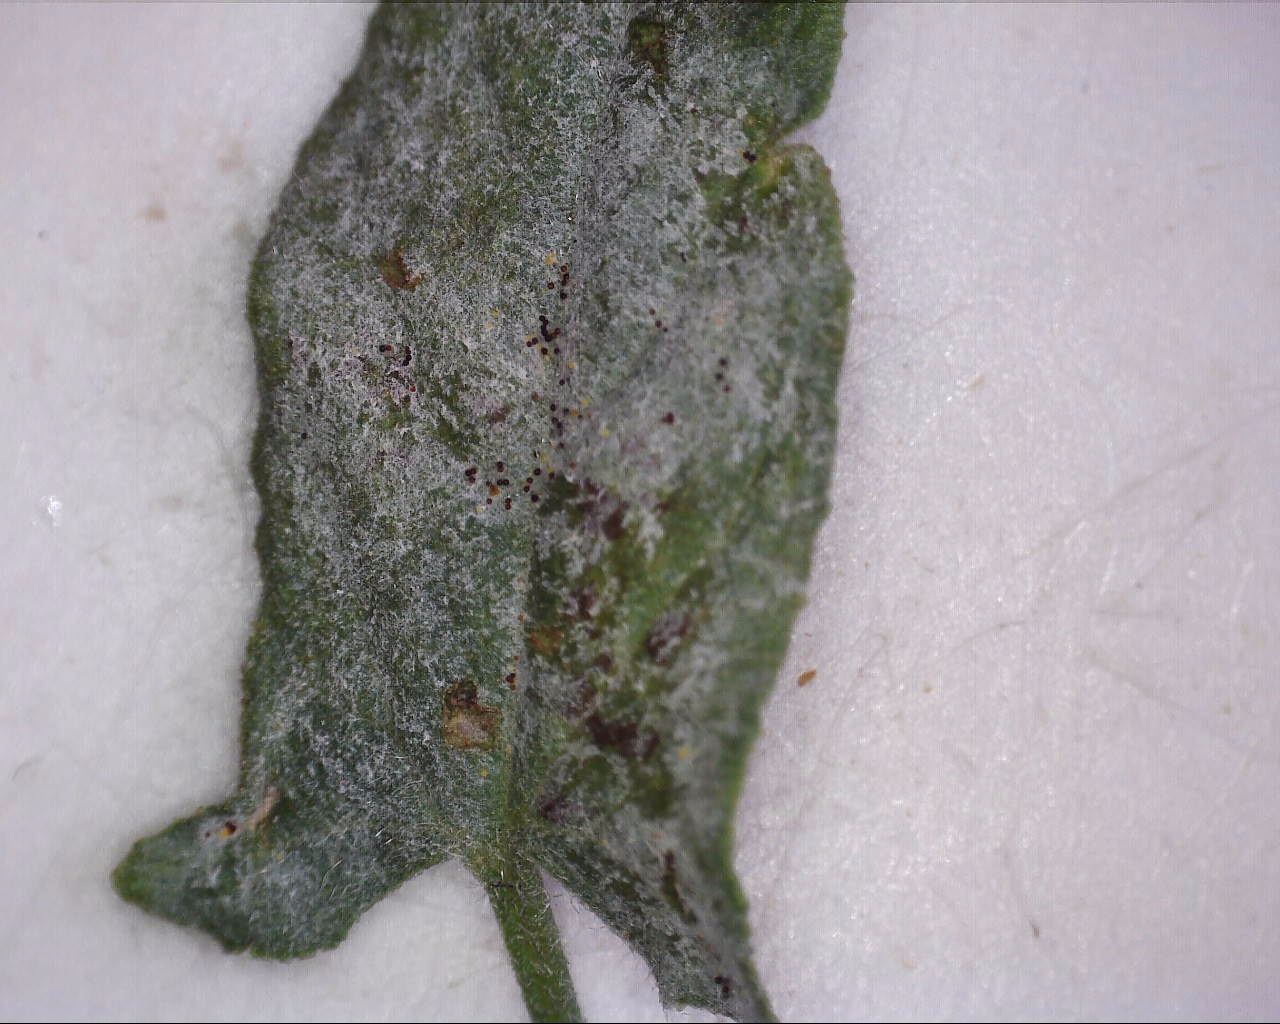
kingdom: Fungi
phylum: Ascomycota
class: Leotiomycetes
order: Helotiales
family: Erysiphaceae
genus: Erysiphe
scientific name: Erysiphe convolvuli
